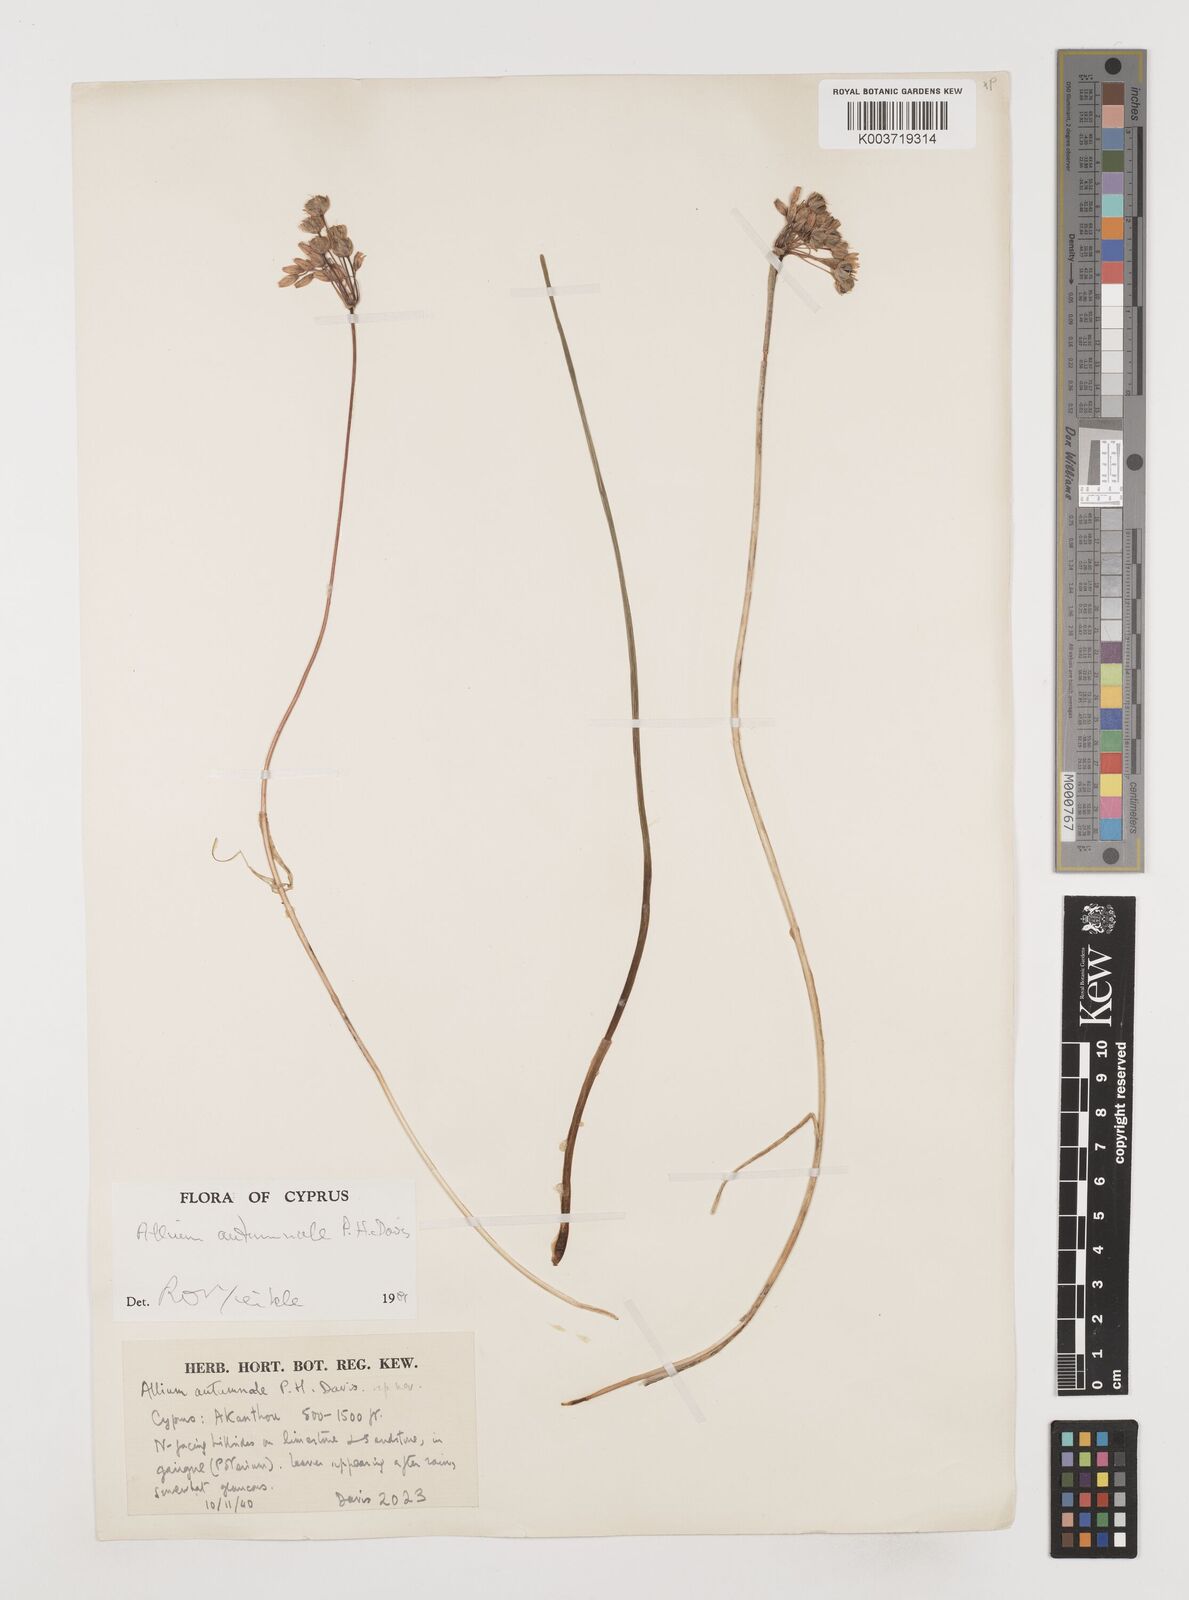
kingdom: Plantae
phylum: Tracheophyta
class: Liliopsida
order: Asparagales
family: Amaryllidaceae
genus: Allium
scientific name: Allium autumnale
